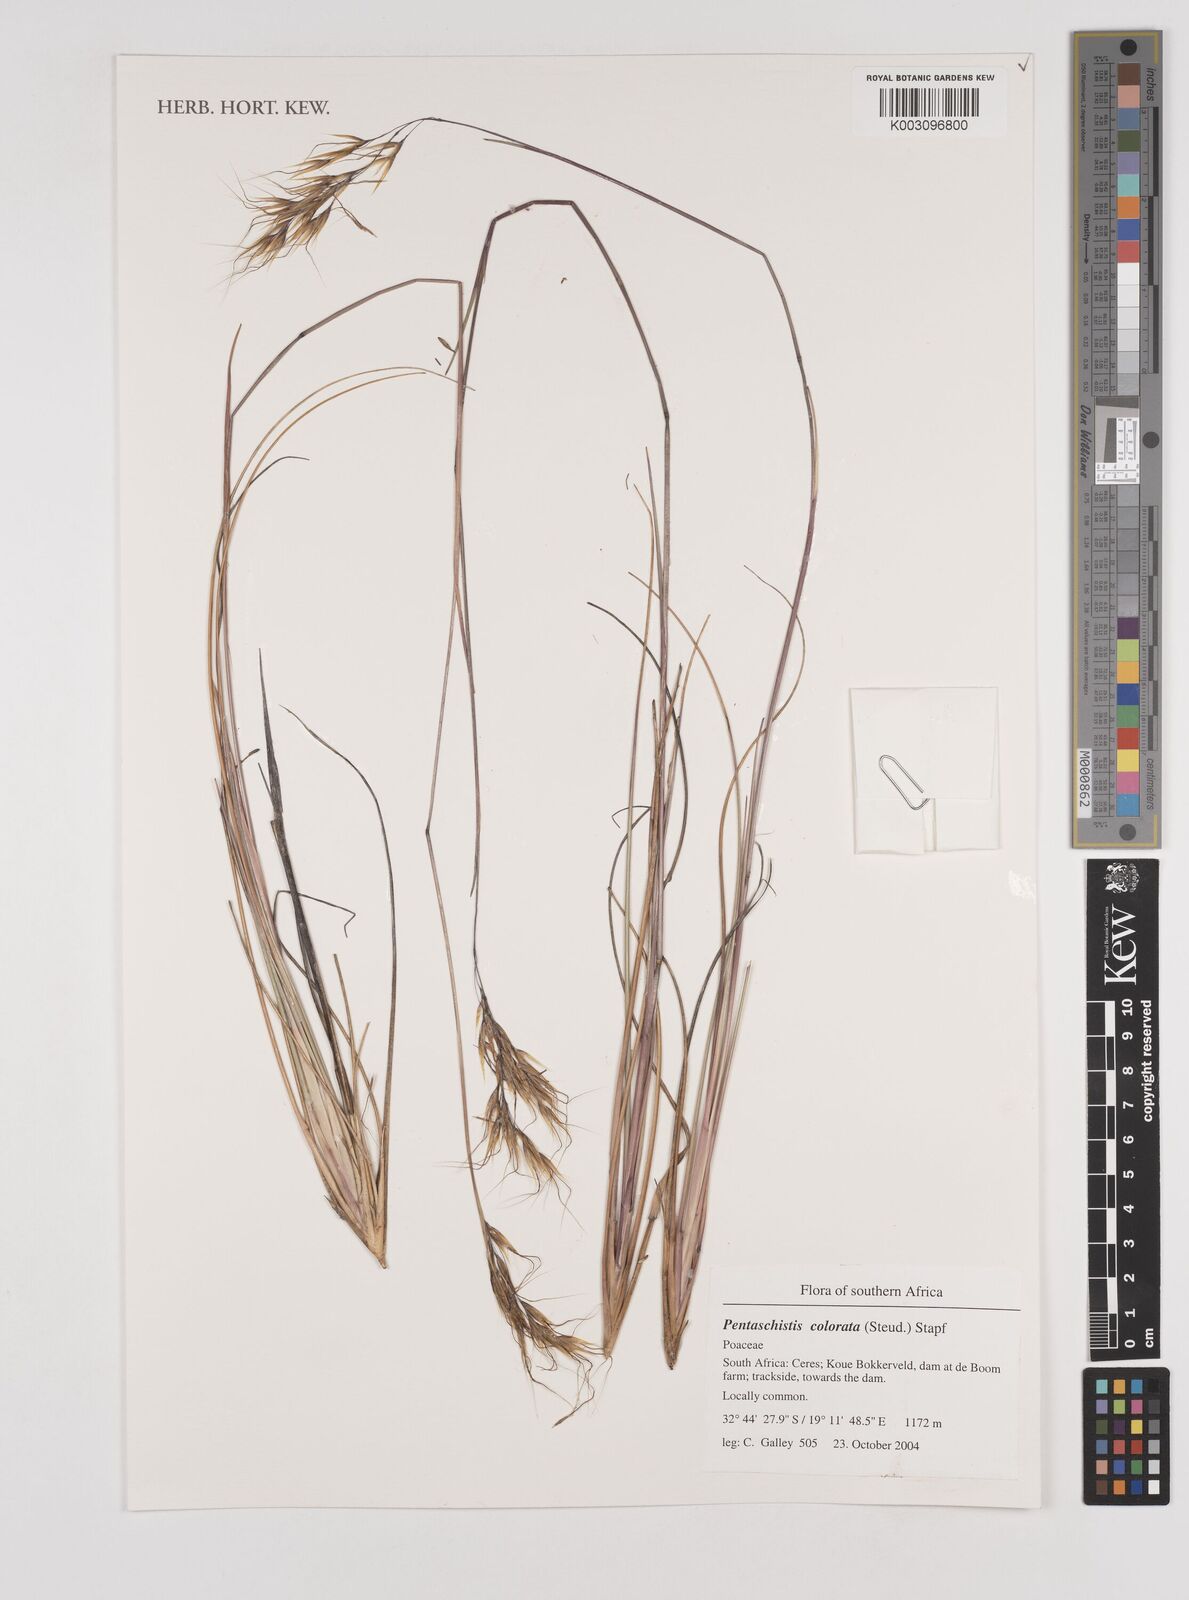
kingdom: Plantae
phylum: Tracheophyta
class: Liliopsida
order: Poales
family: Poaceae
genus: Pentameris
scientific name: Pentameris colorata
